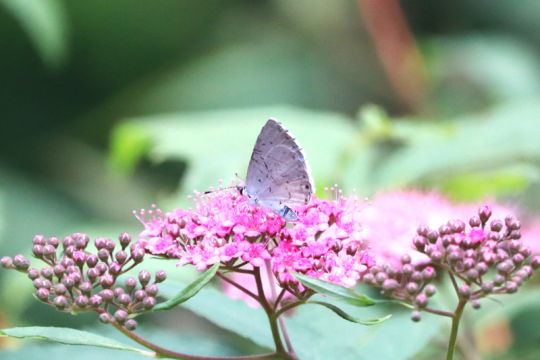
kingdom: Animalia
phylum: Arthropoda
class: Insecta
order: Lepidoptera
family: Lycaenidae
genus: Cyaniris
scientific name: Cyaniris neglecta
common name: Summer Azure
